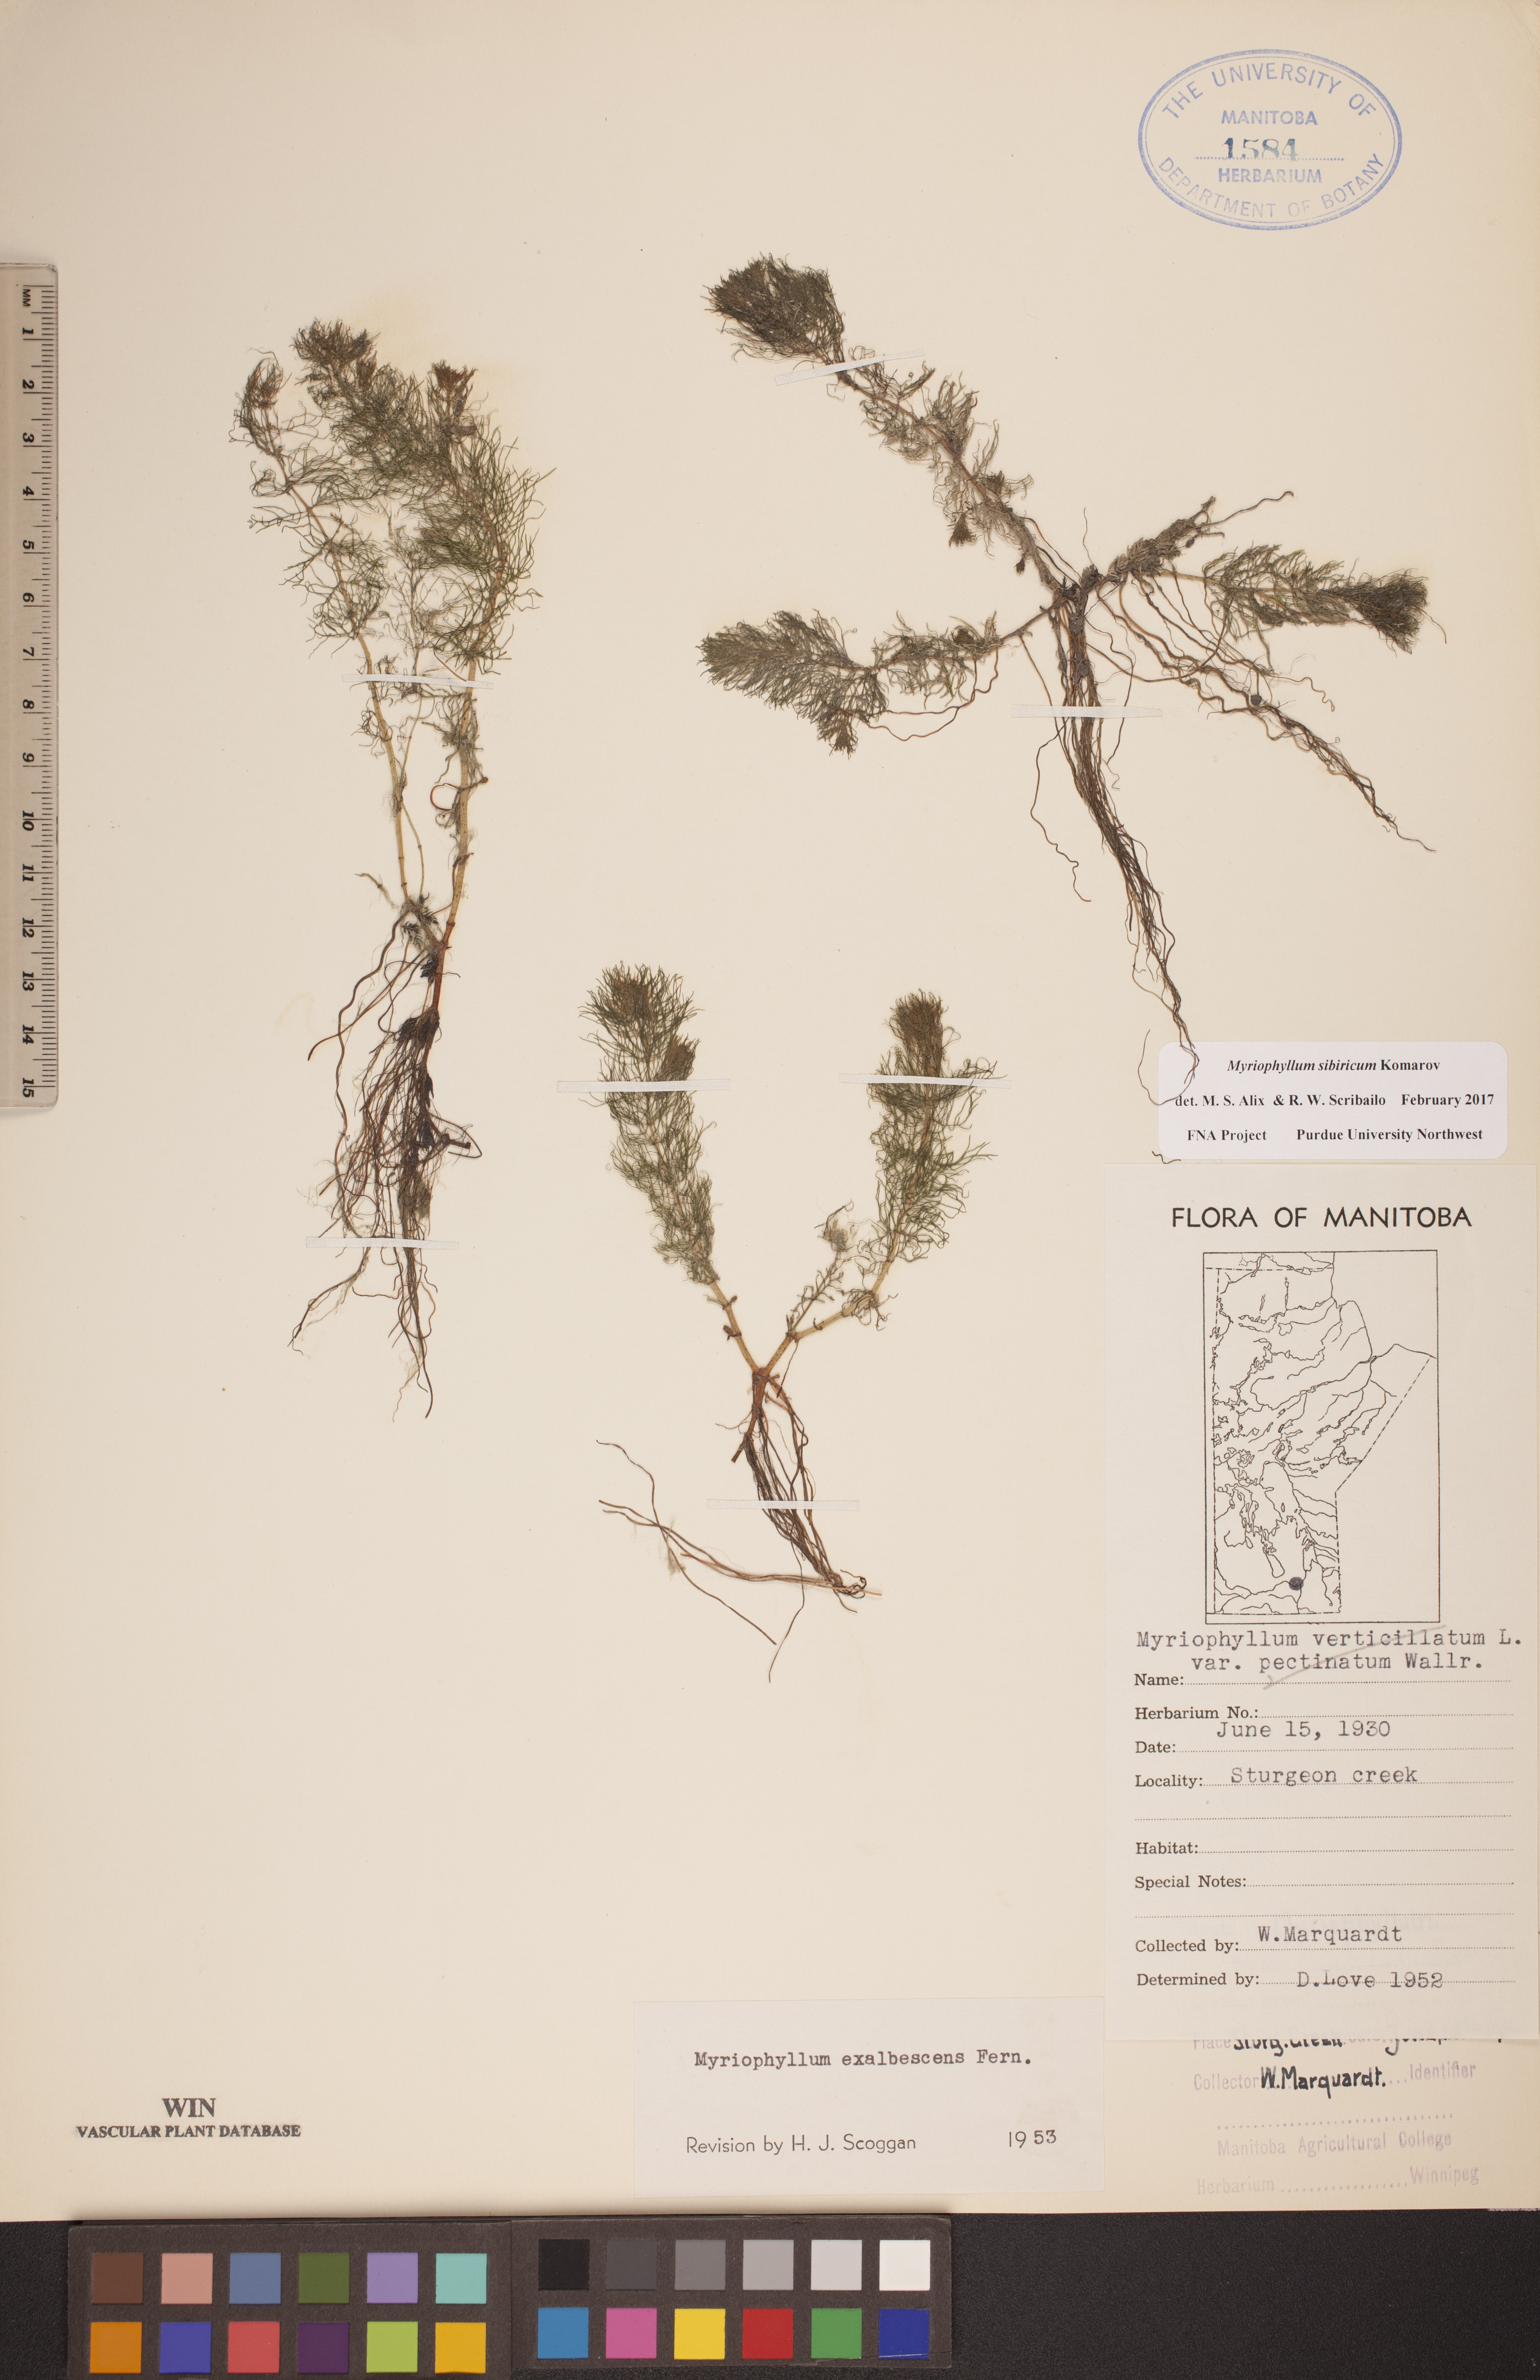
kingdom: Plantae
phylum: Tracheophyta
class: Magnoliopsida
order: Saxifragales
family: Haloragaceae
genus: Myriophyllum
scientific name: Myriophyllum sibiricum
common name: Siberian water-milfoil
